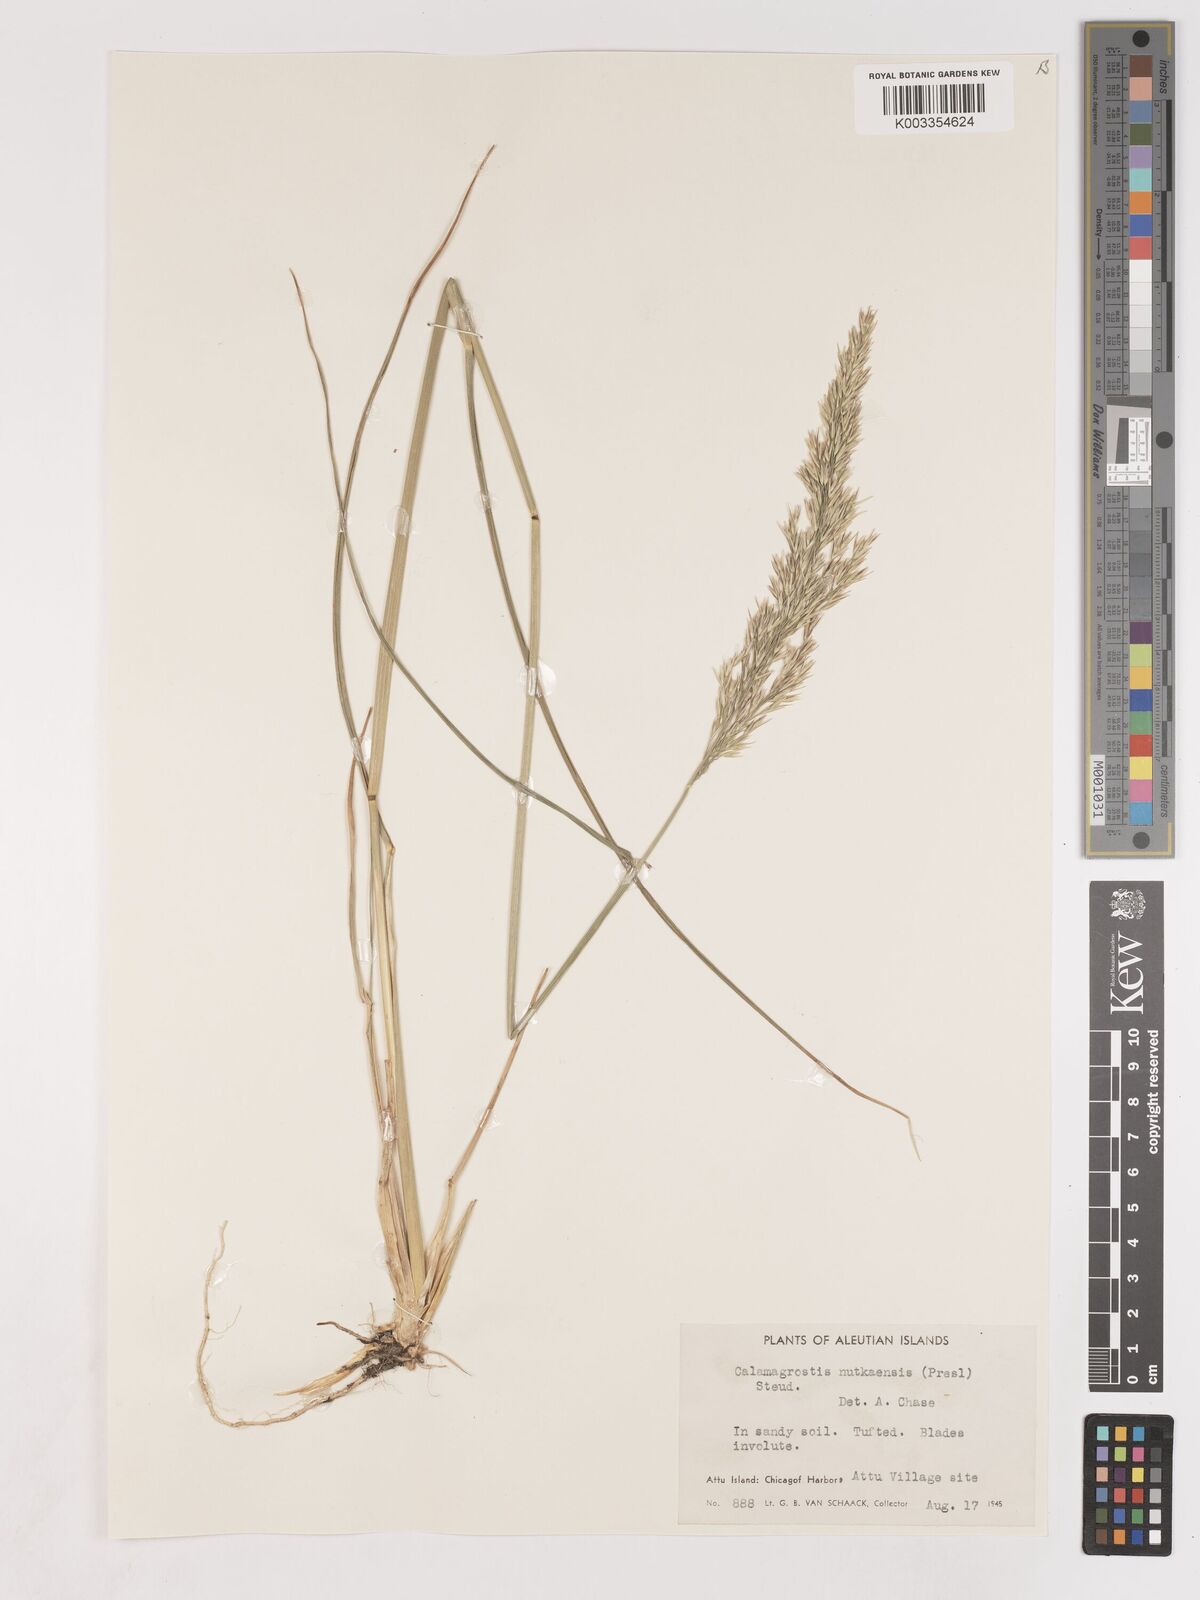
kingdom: Plantae
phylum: Tracheophyta
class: Liliopsida
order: Poales
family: Poaceae
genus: Calamagrostis
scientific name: Calamagrostis nutkaensis
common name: Pacific reed grass
